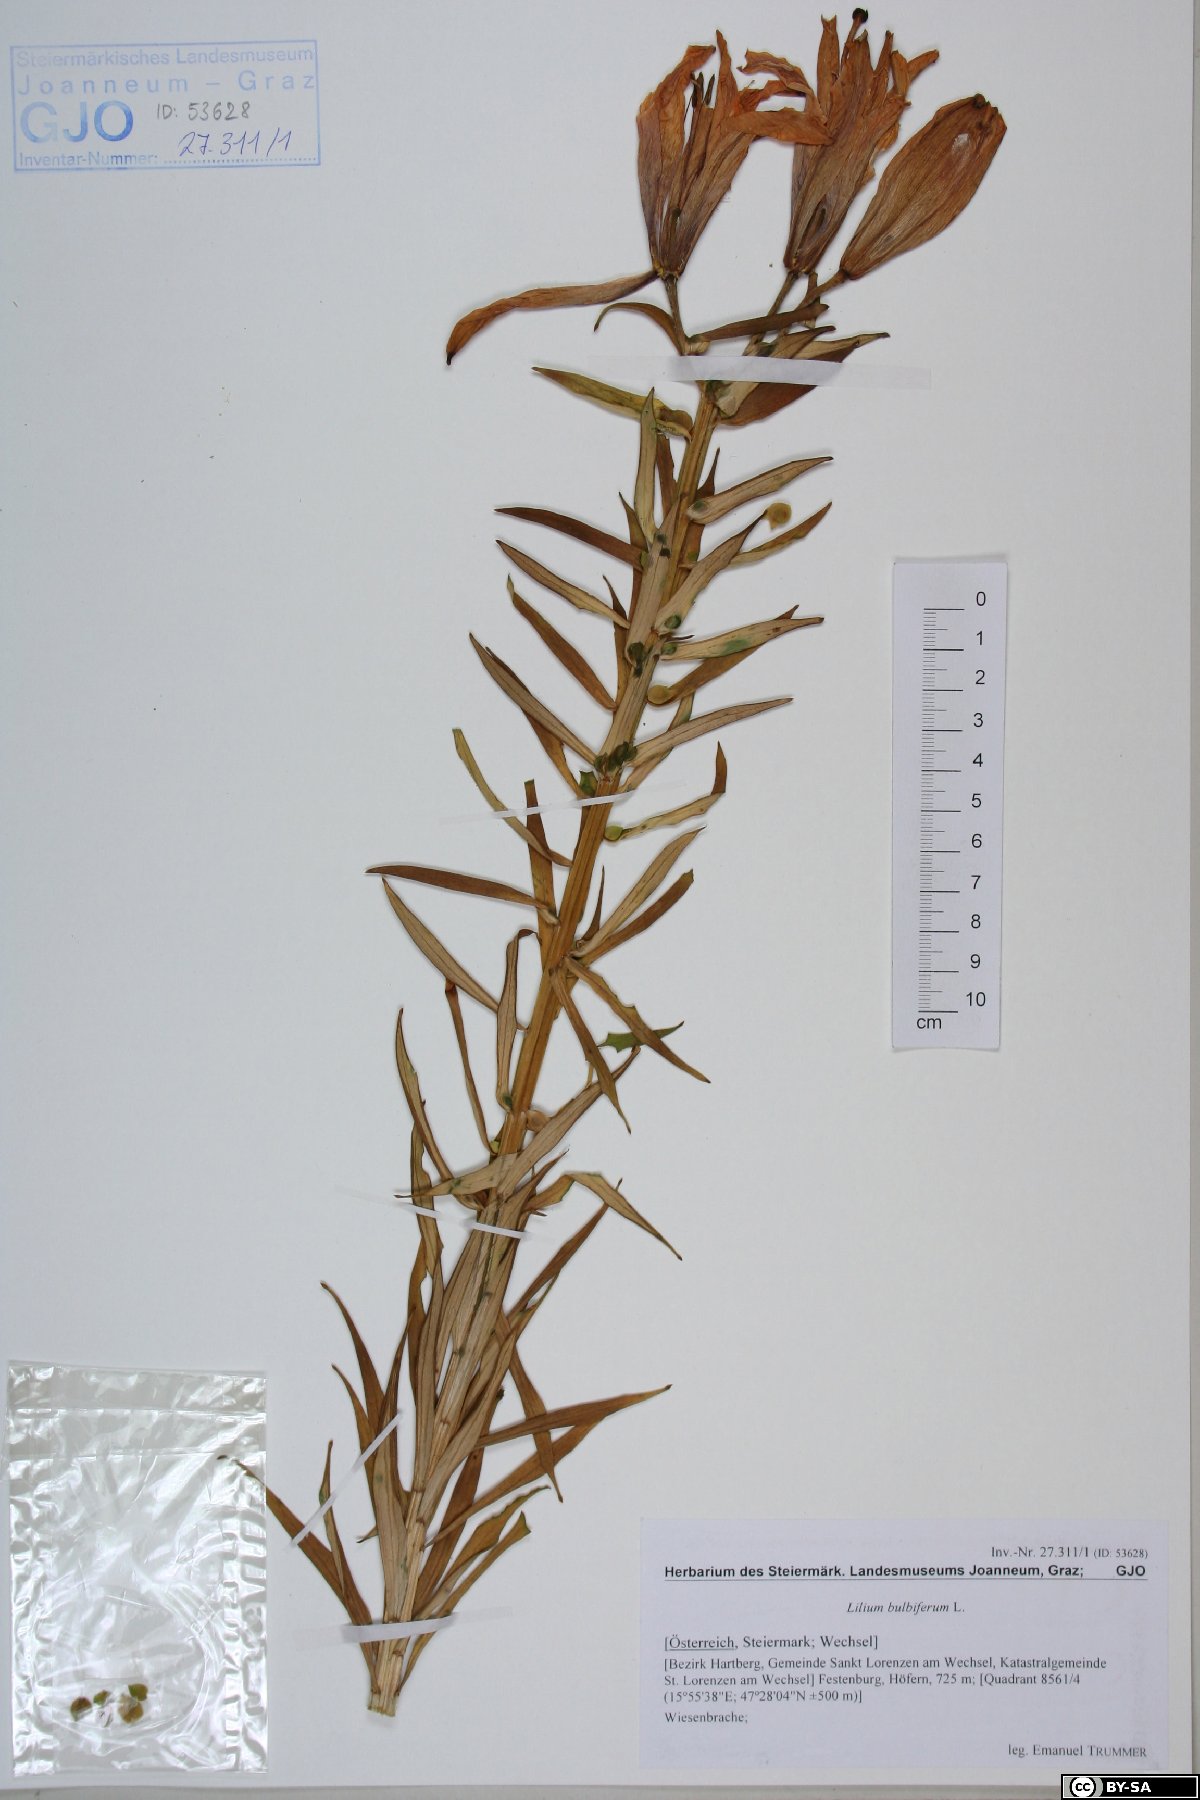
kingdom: Plantae
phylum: Tracheophyta
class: Liliopsida
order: Liliales
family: Liliaceae
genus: Lilium
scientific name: Lilium bulbiferum
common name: Orange lily
